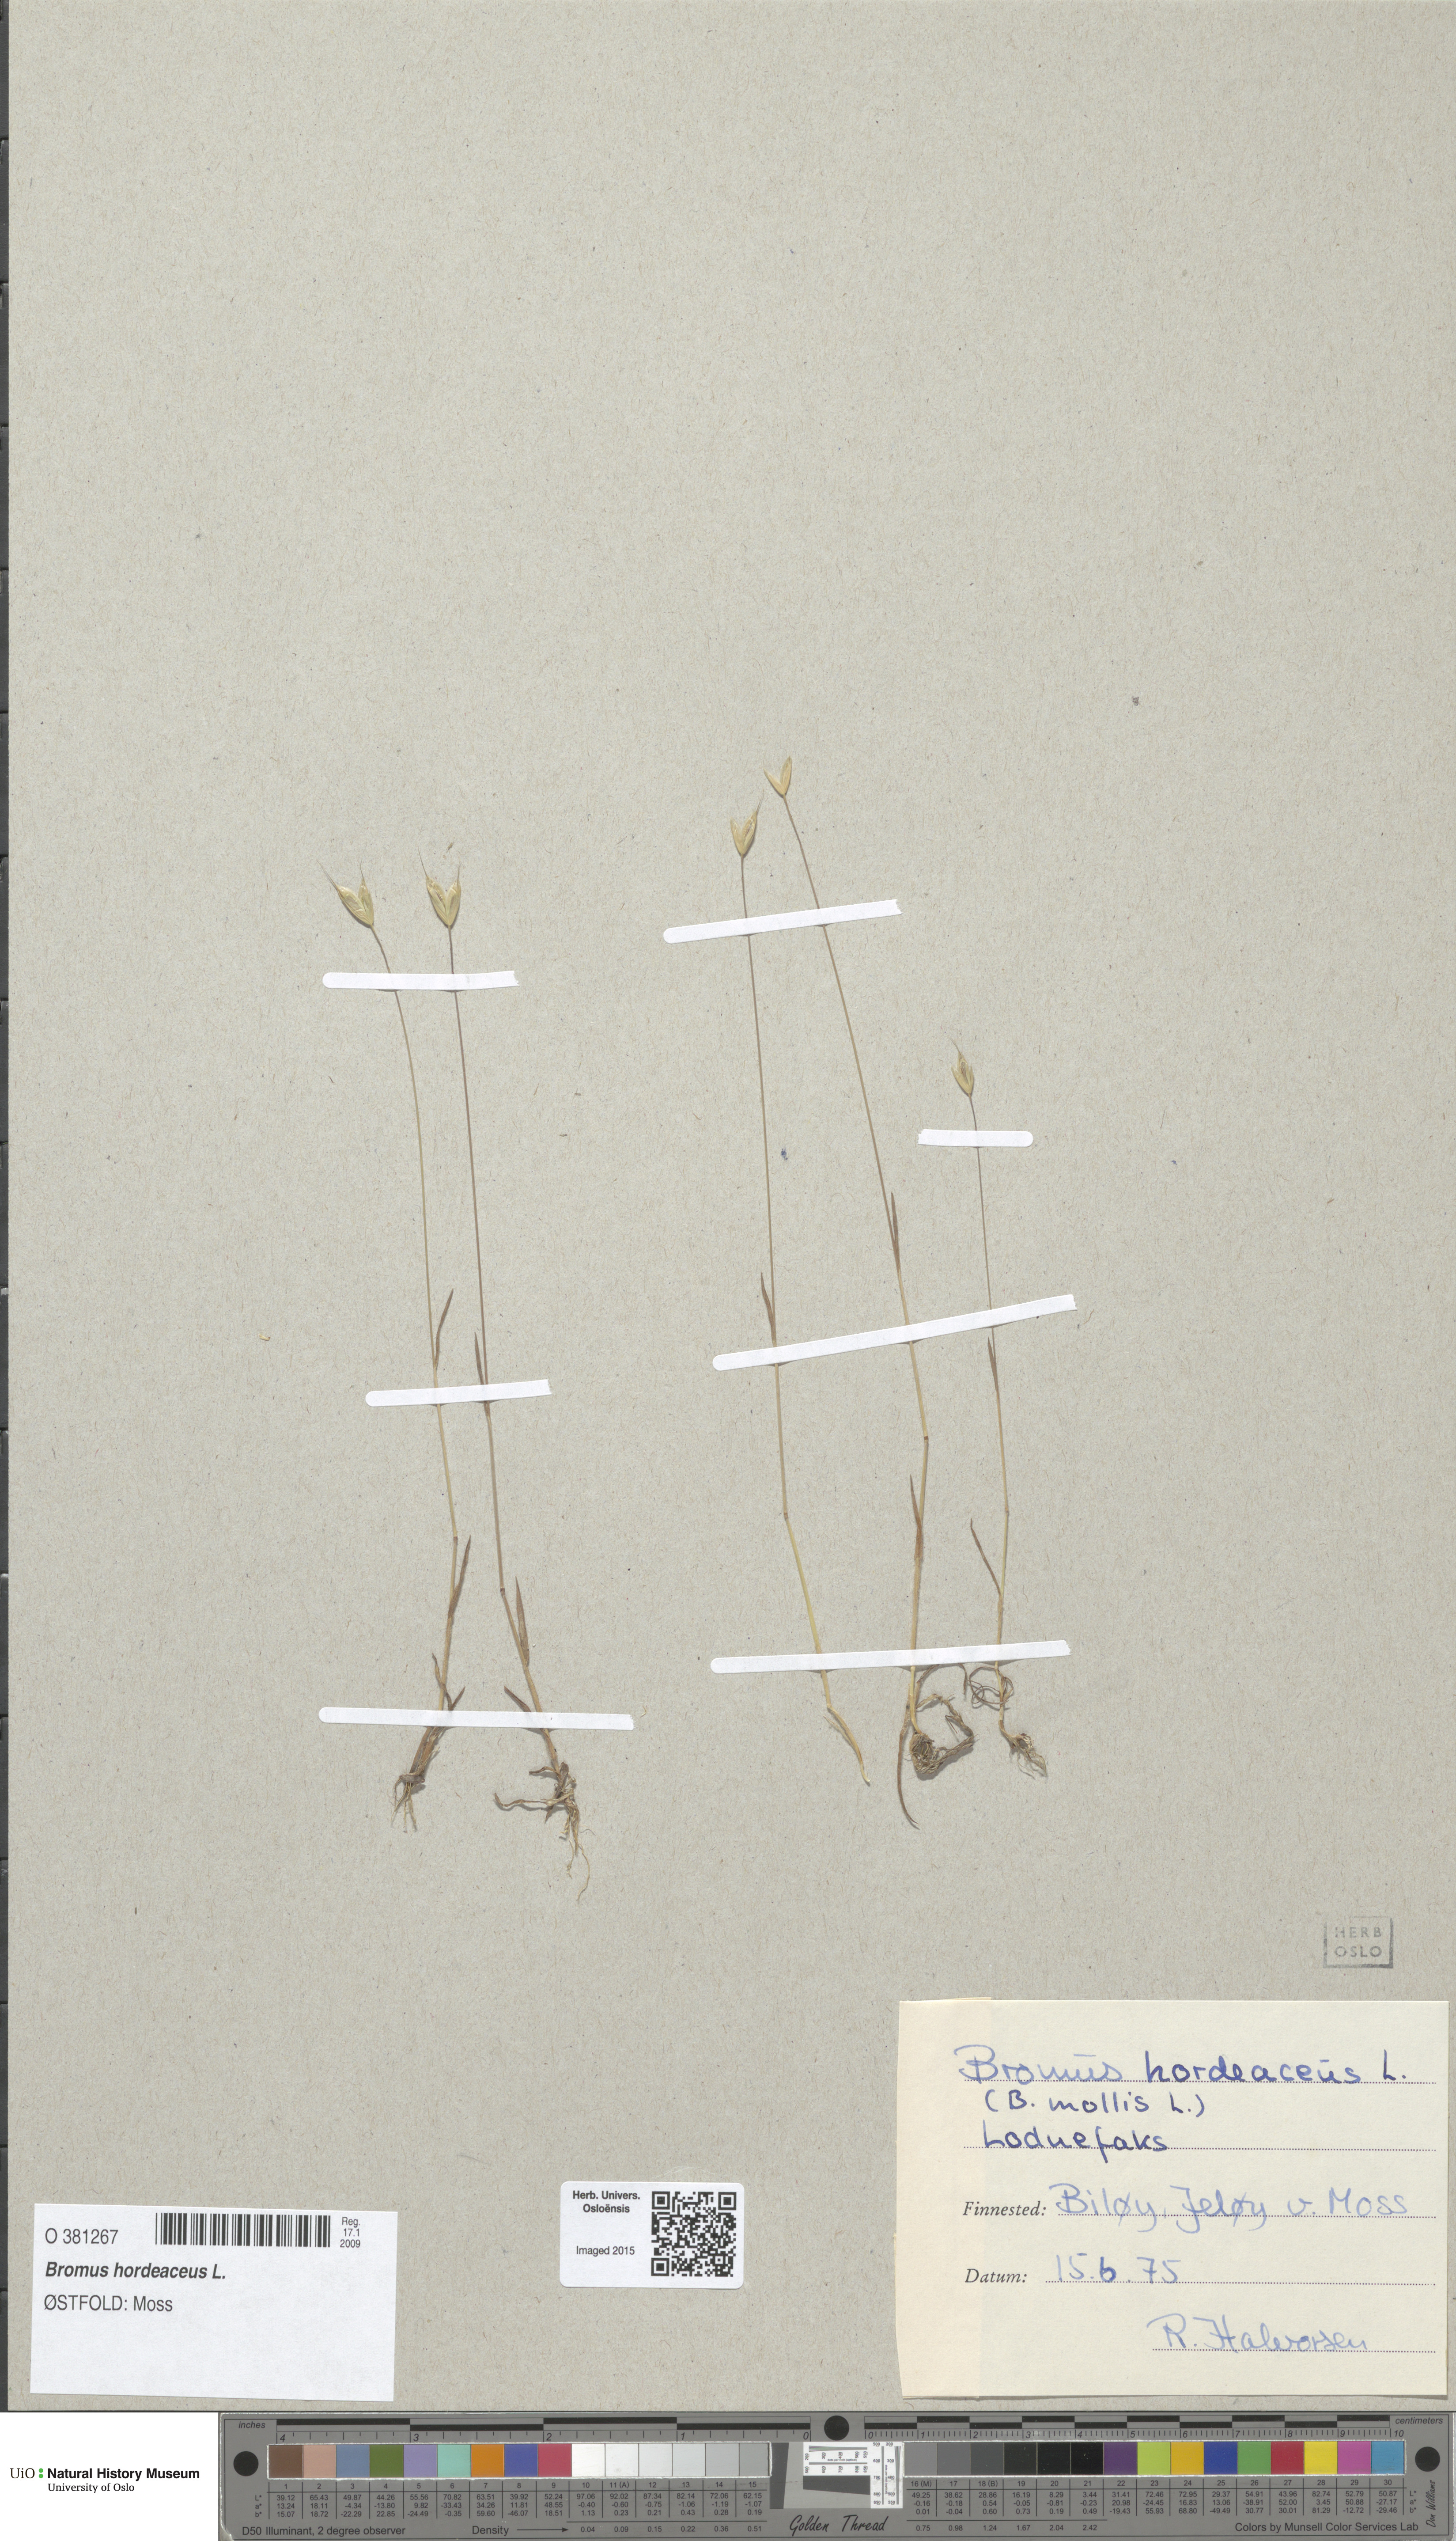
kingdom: Plantae
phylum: Tracheophyta
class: Liliopsida
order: Poales
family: Poaceae
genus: Bromus
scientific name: Bromus hordeaceus
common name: Soft brome
